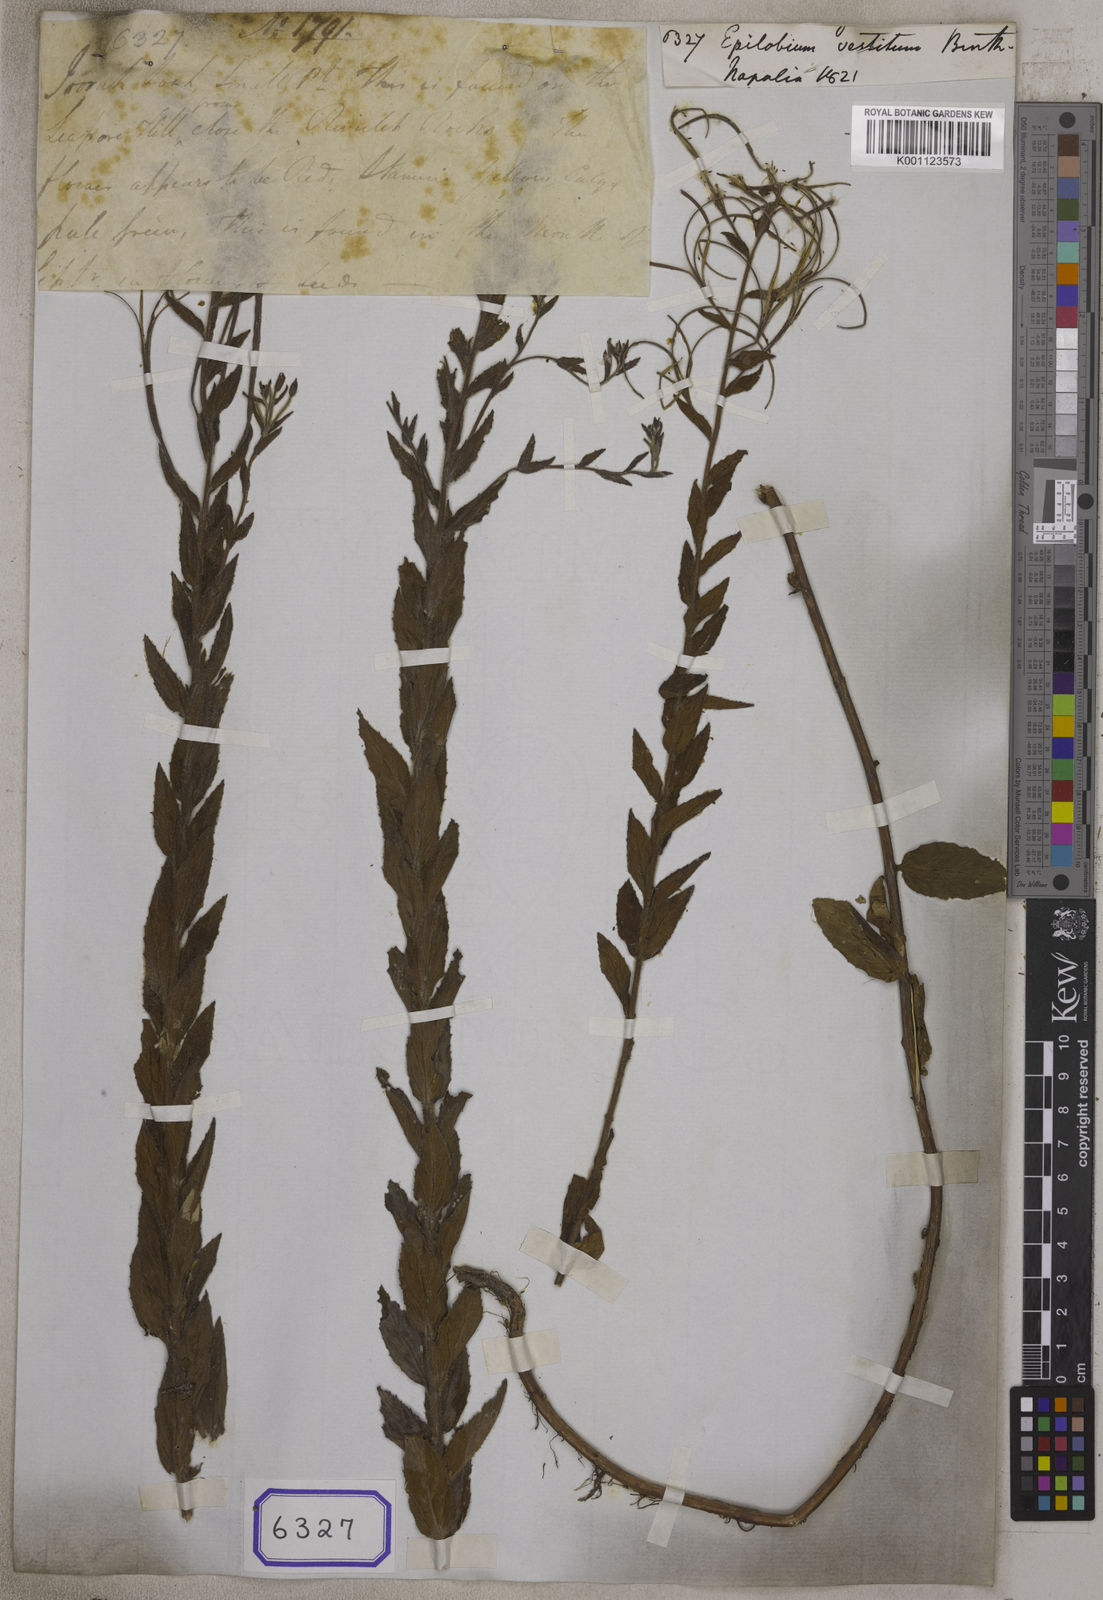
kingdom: Plantae
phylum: Tracheophyta
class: Magnoliopsida
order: Myrtales
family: Onagraceae
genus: Epilobium
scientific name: Epilobium
